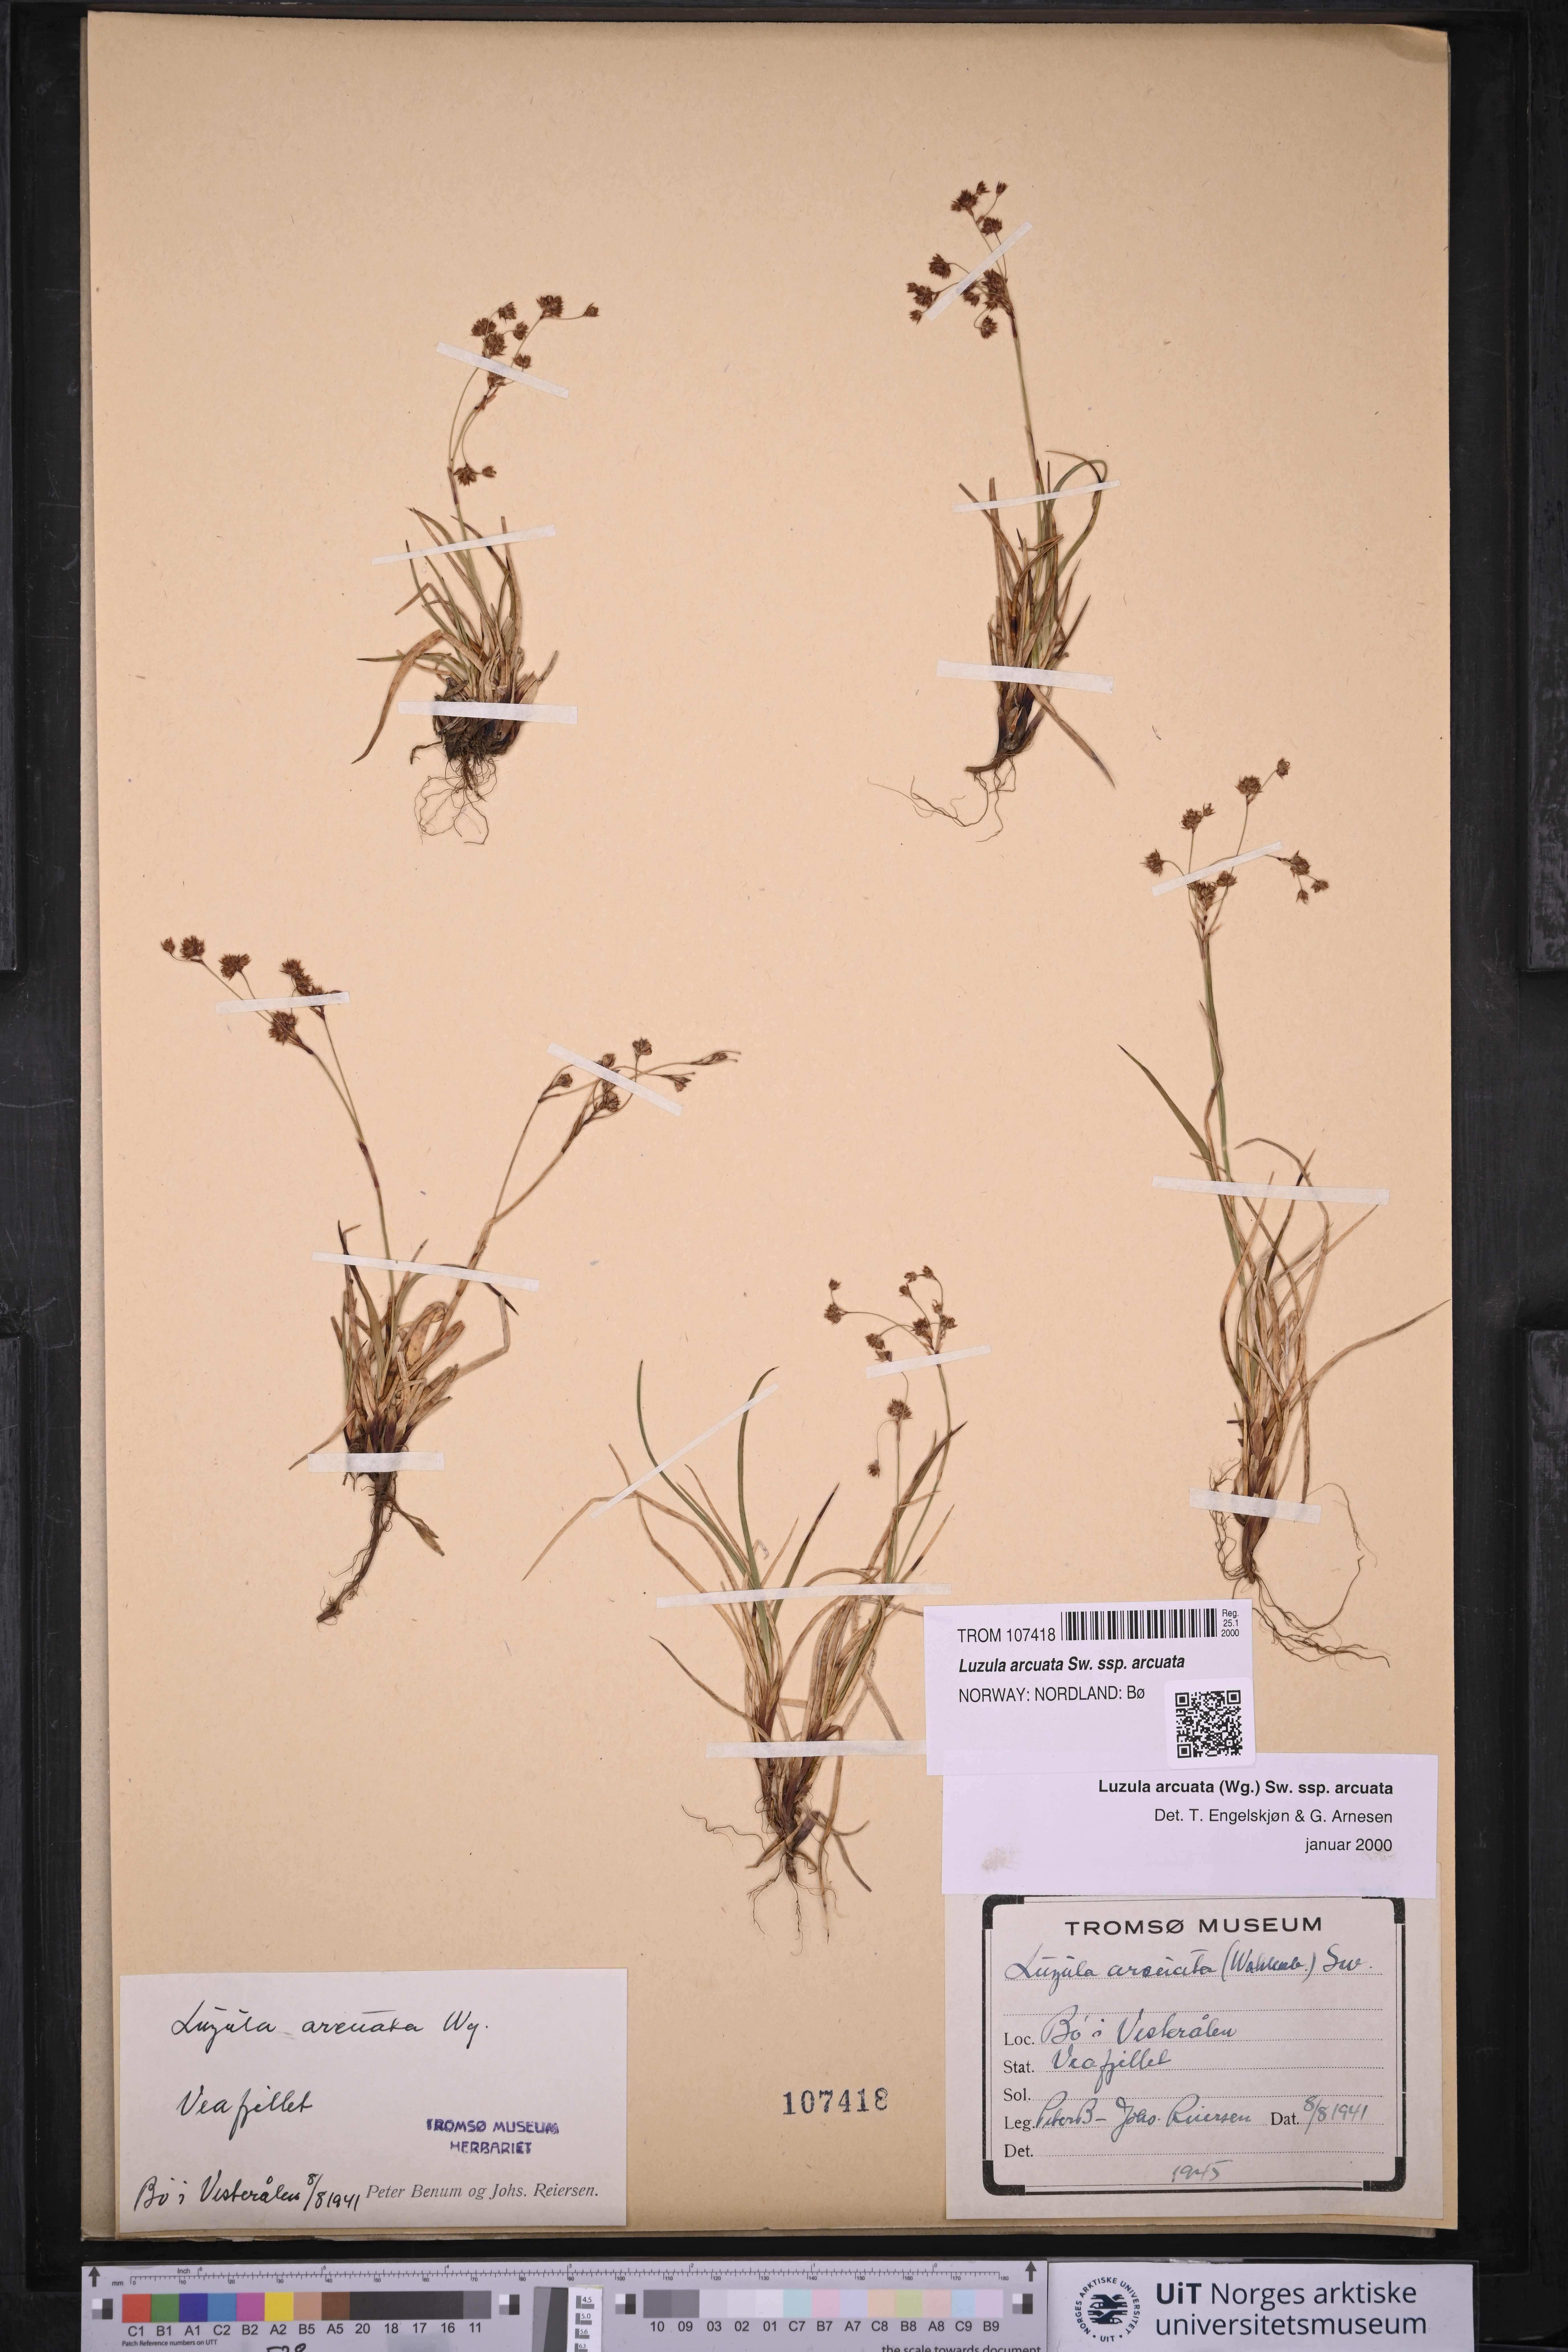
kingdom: Plantae
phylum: Tracheophyta
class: Liliopsida
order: Poales
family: Juncaceae
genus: Luzula
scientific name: Luzula arcuata
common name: Curved wood-rush
